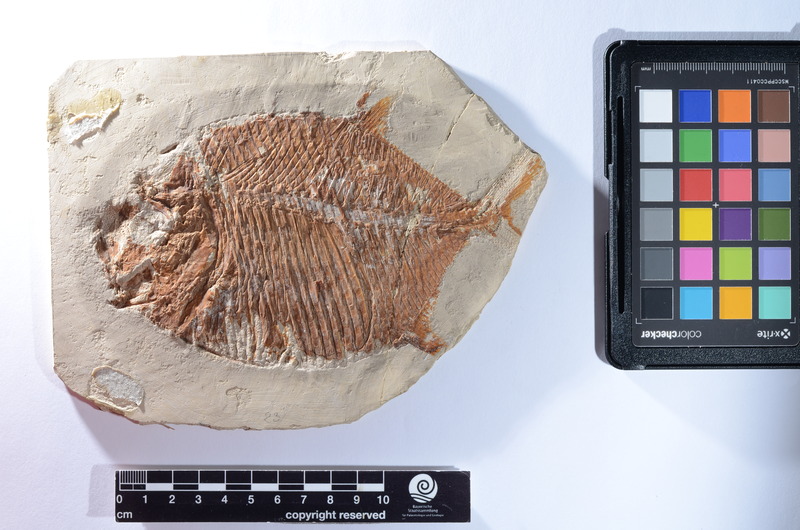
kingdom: Animalia
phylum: Chordata
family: Gyrodontidae
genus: Gyrodus
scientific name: Gyrodus hexagonus
